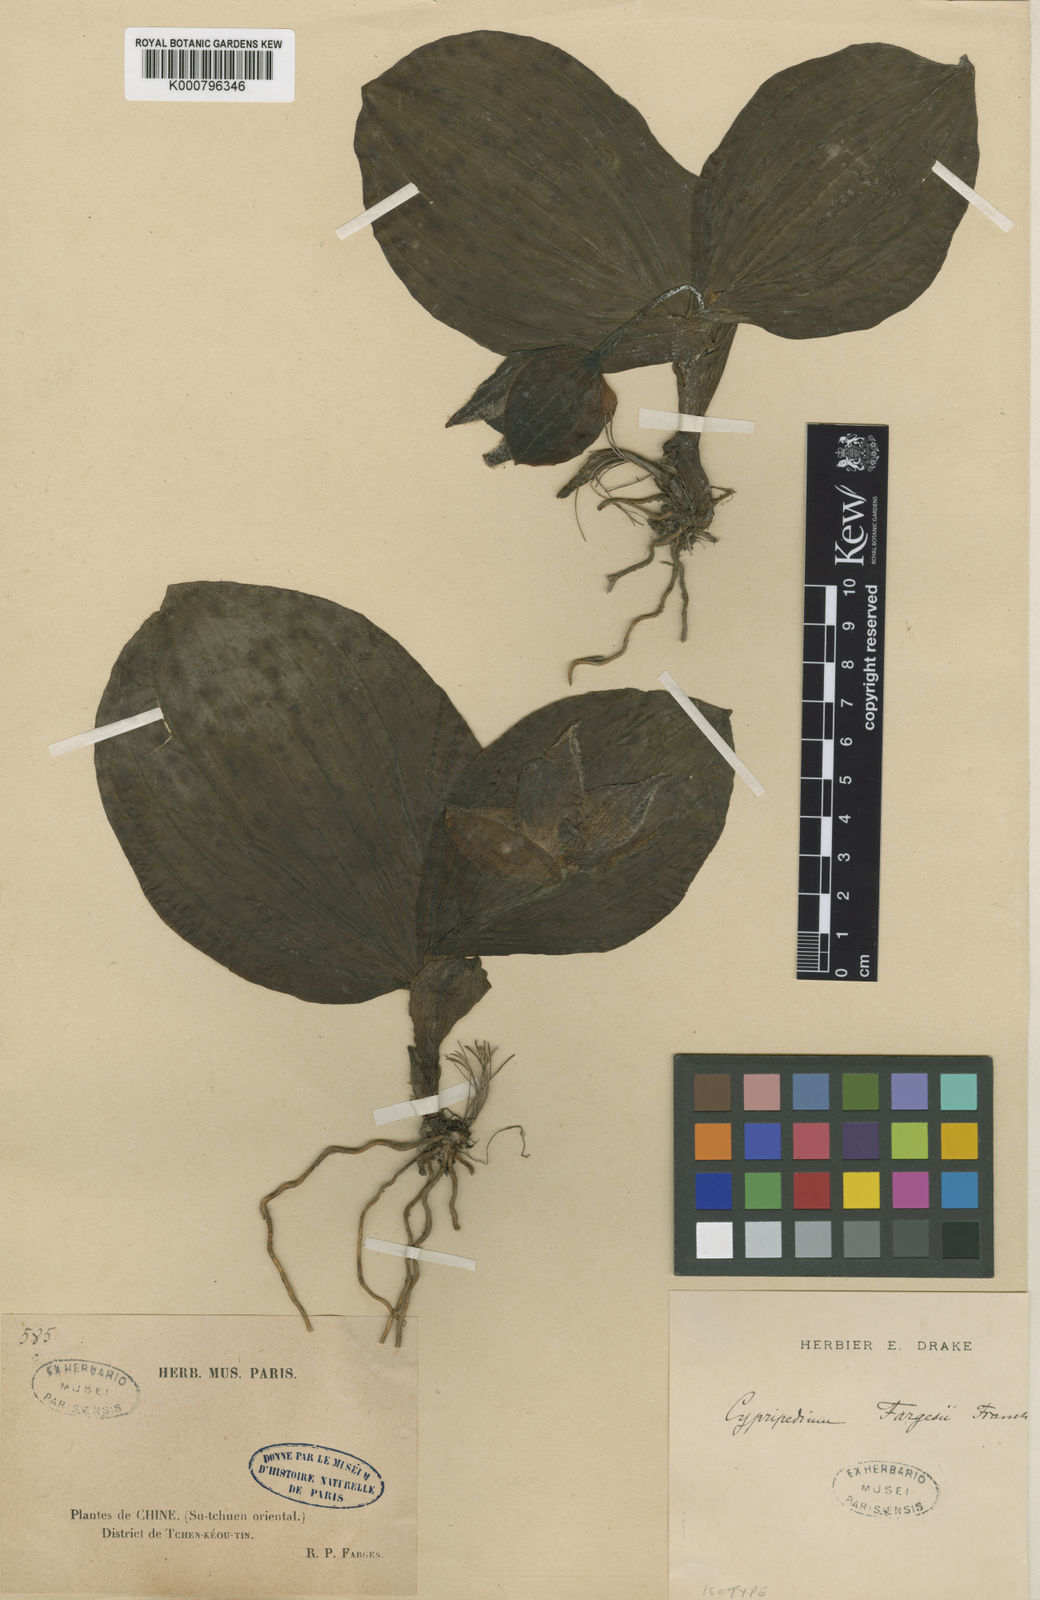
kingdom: Plantae
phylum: Tracheophyta
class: Liliopsida
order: Asparagales
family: Orchidaceae
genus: Cypripedium
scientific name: Cypripedium fargesii
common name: Farges' cypripedium
